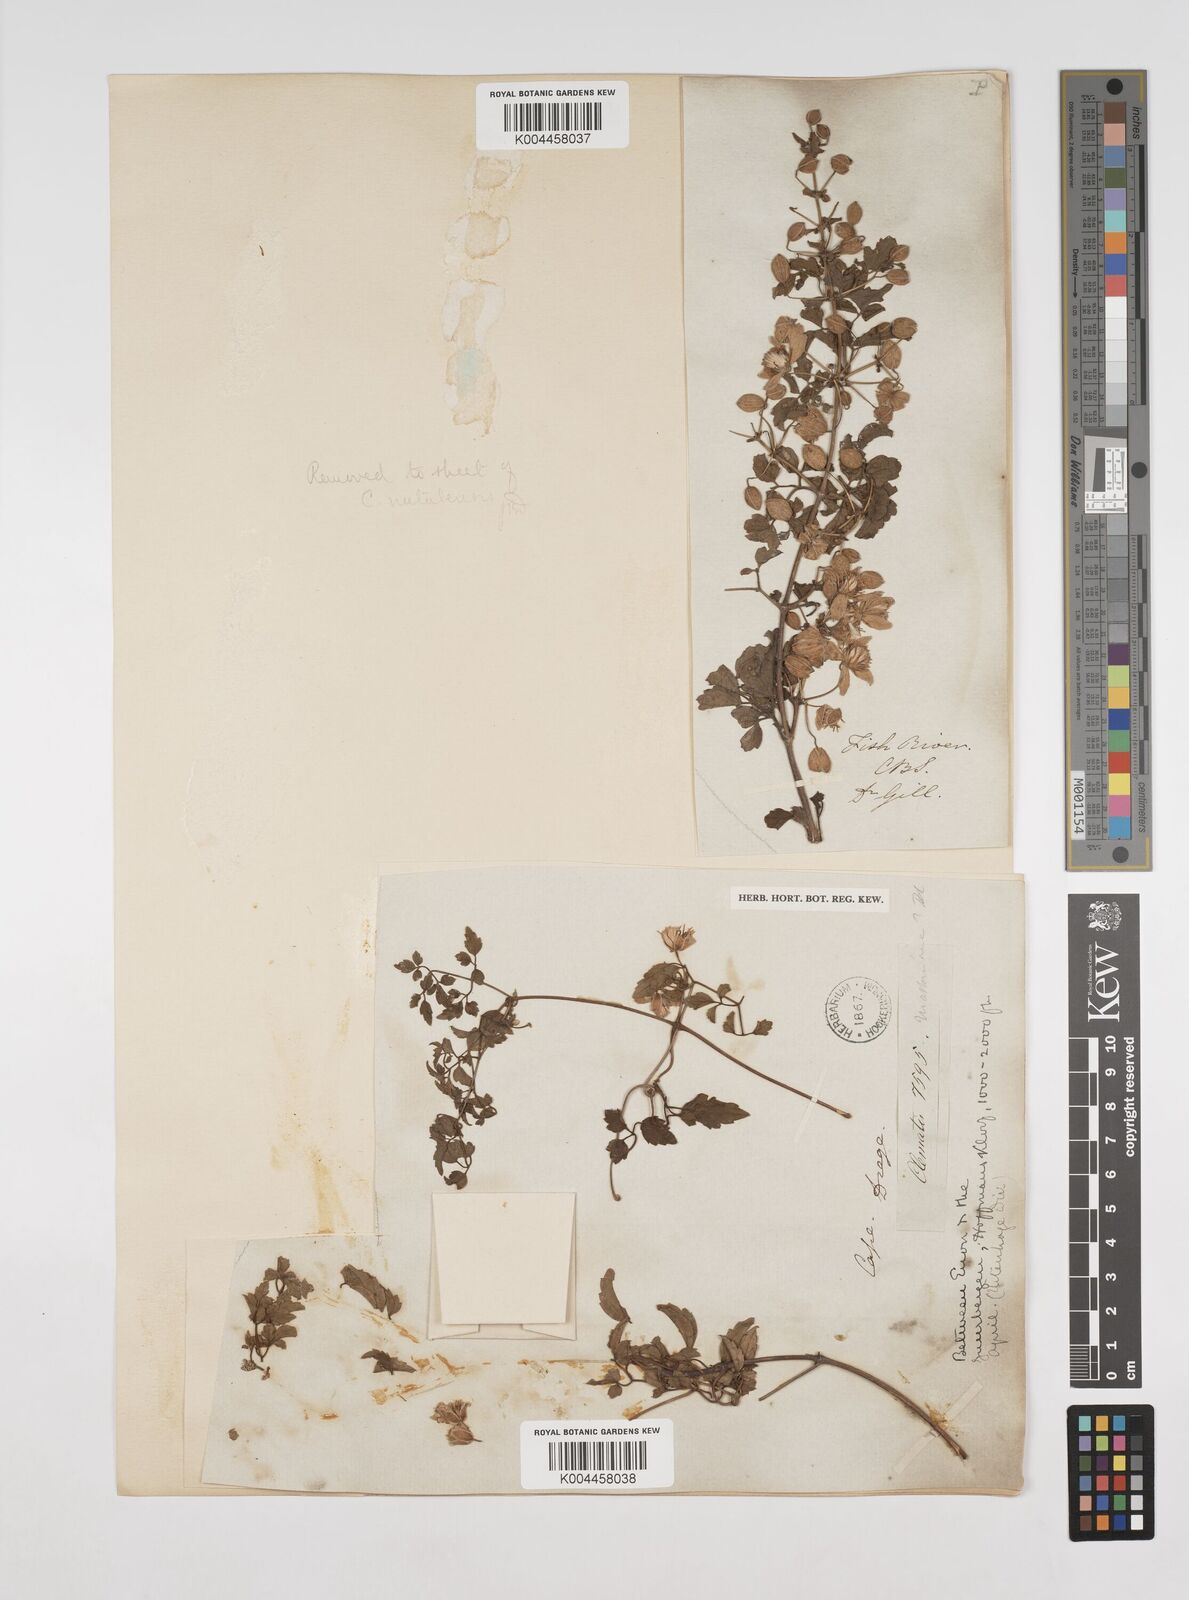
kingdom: Plantae
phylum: Tracheophyta
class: Magnoliopsida
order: Ranunculales
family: Ranunculaceae
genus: Clematis
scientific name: Clematis brachiata
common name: Traveler's-joy
